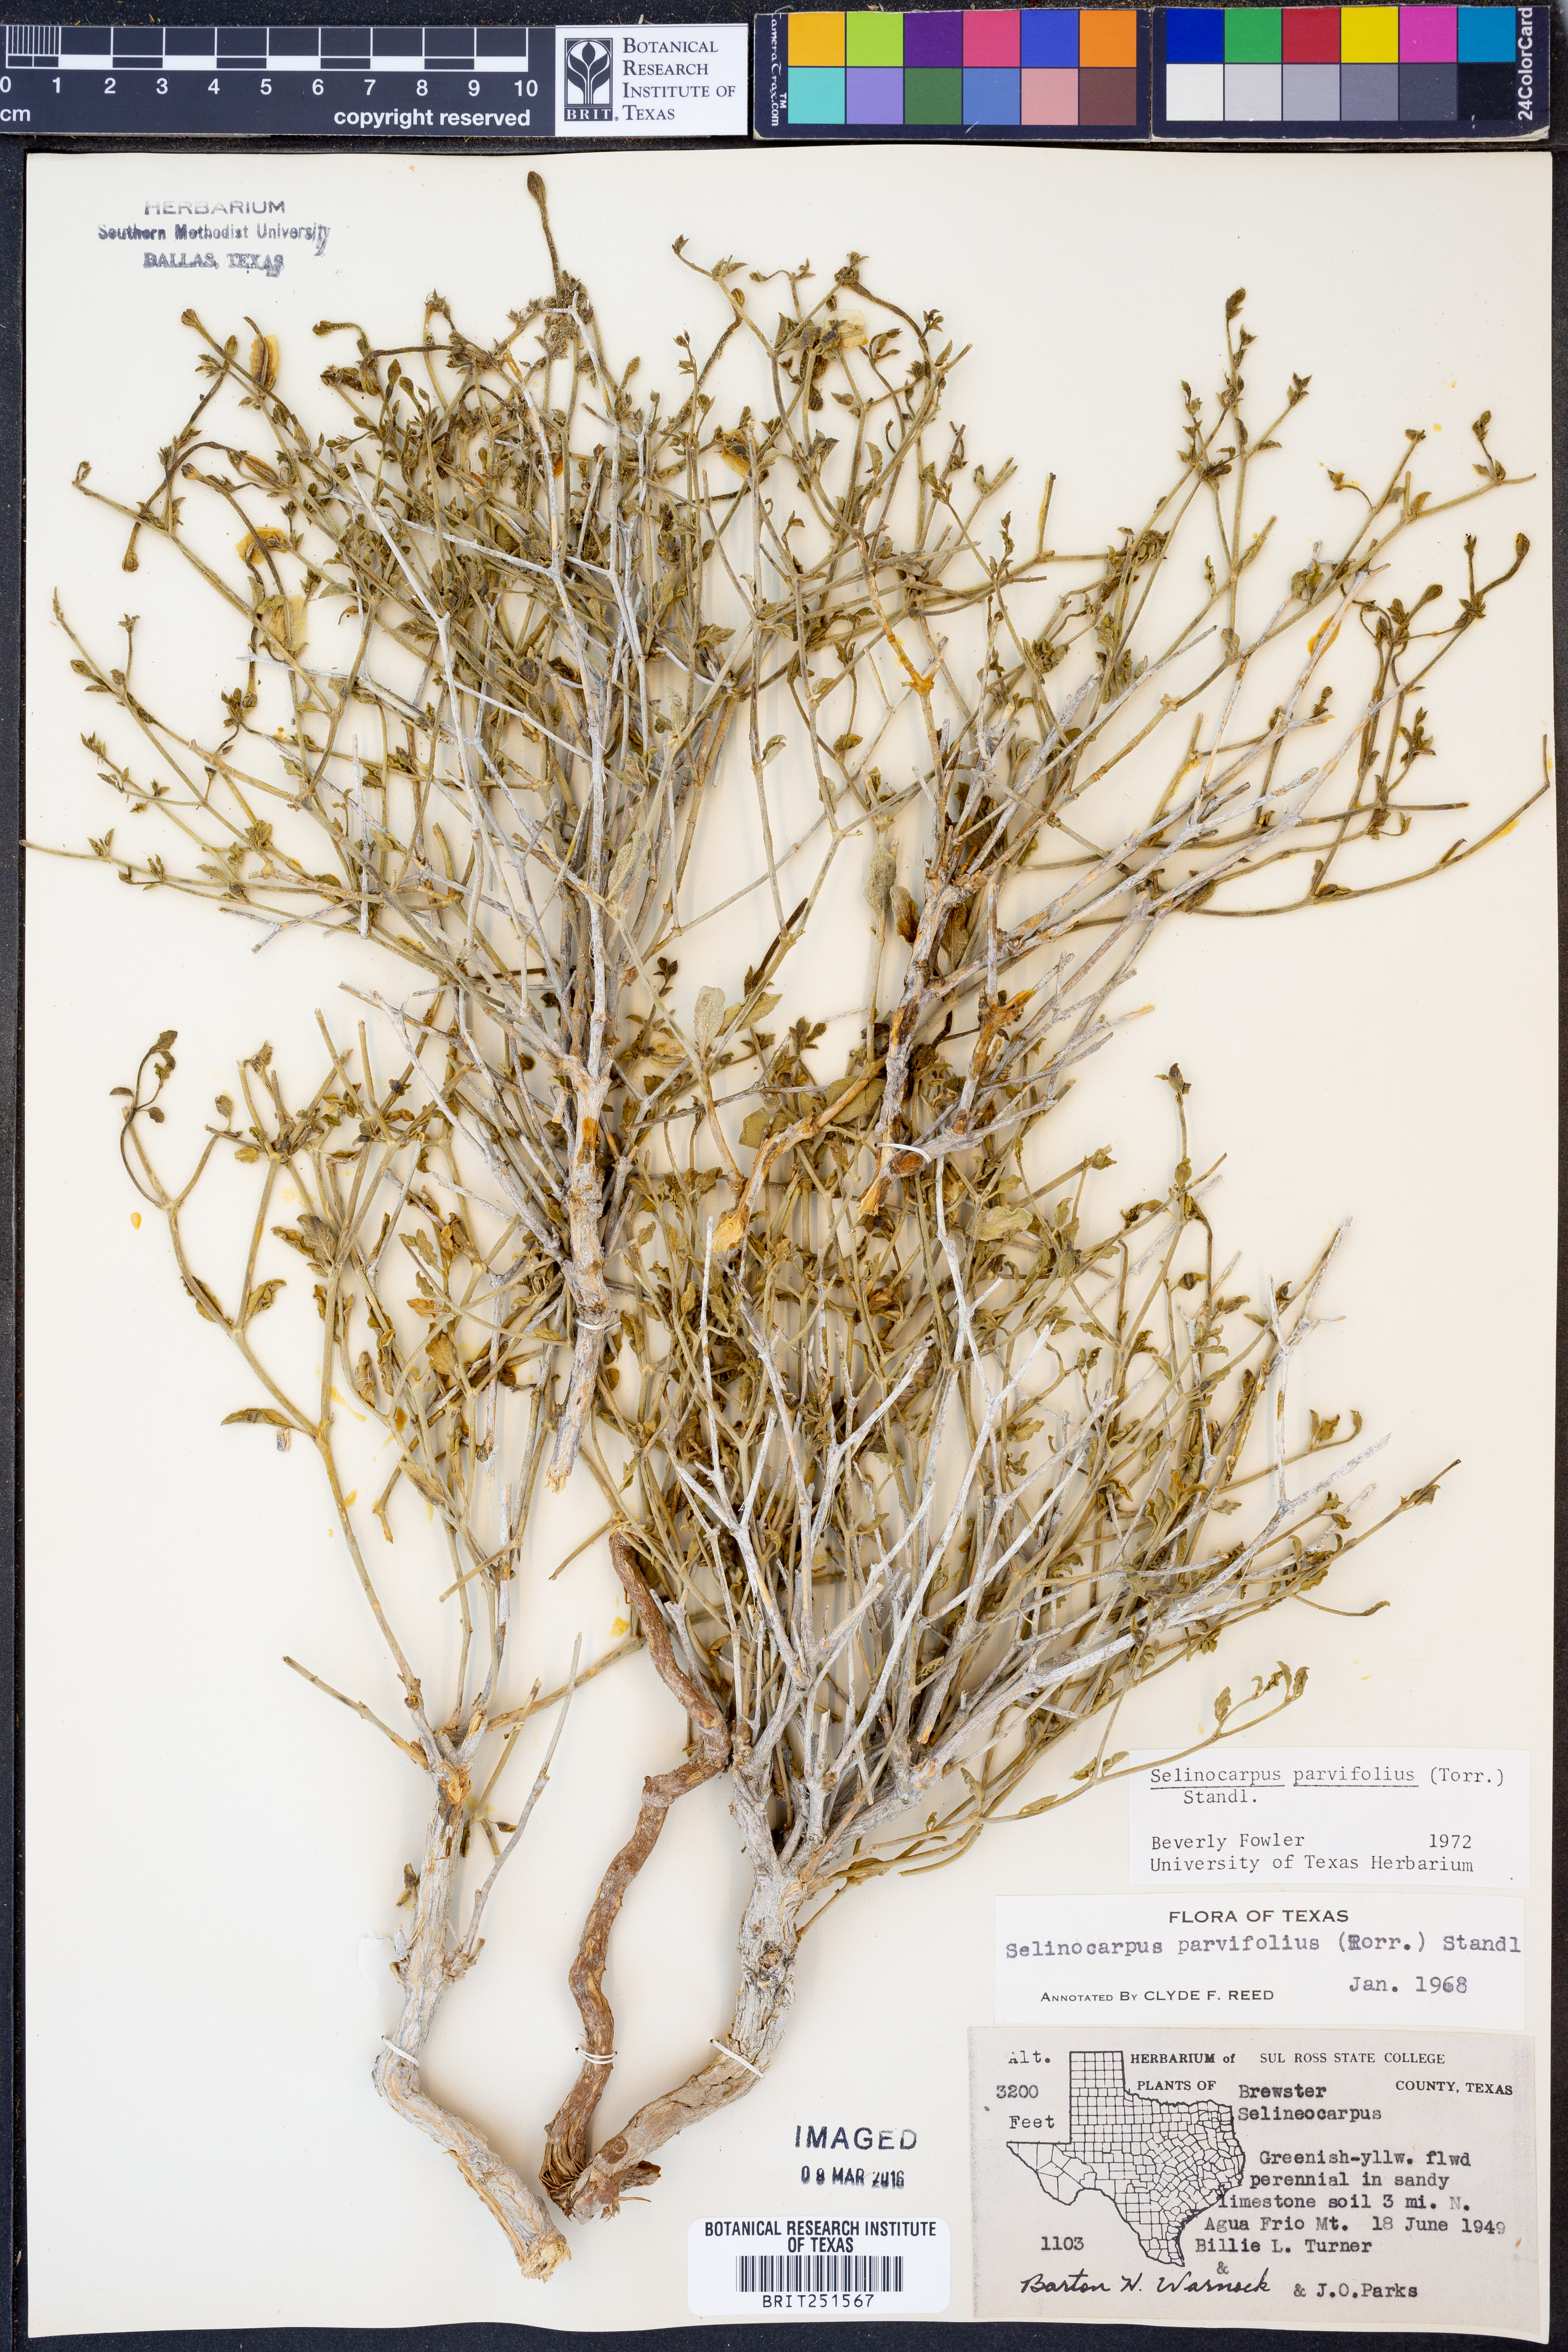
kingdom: Plantae
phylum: Tracheophyta
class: Magnoliopsida
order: Caryophyllales
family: Nyctaginaceae
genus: Acleisanthes
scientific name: Acleisanthes parvifolia
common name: Littleleaf moonpod
